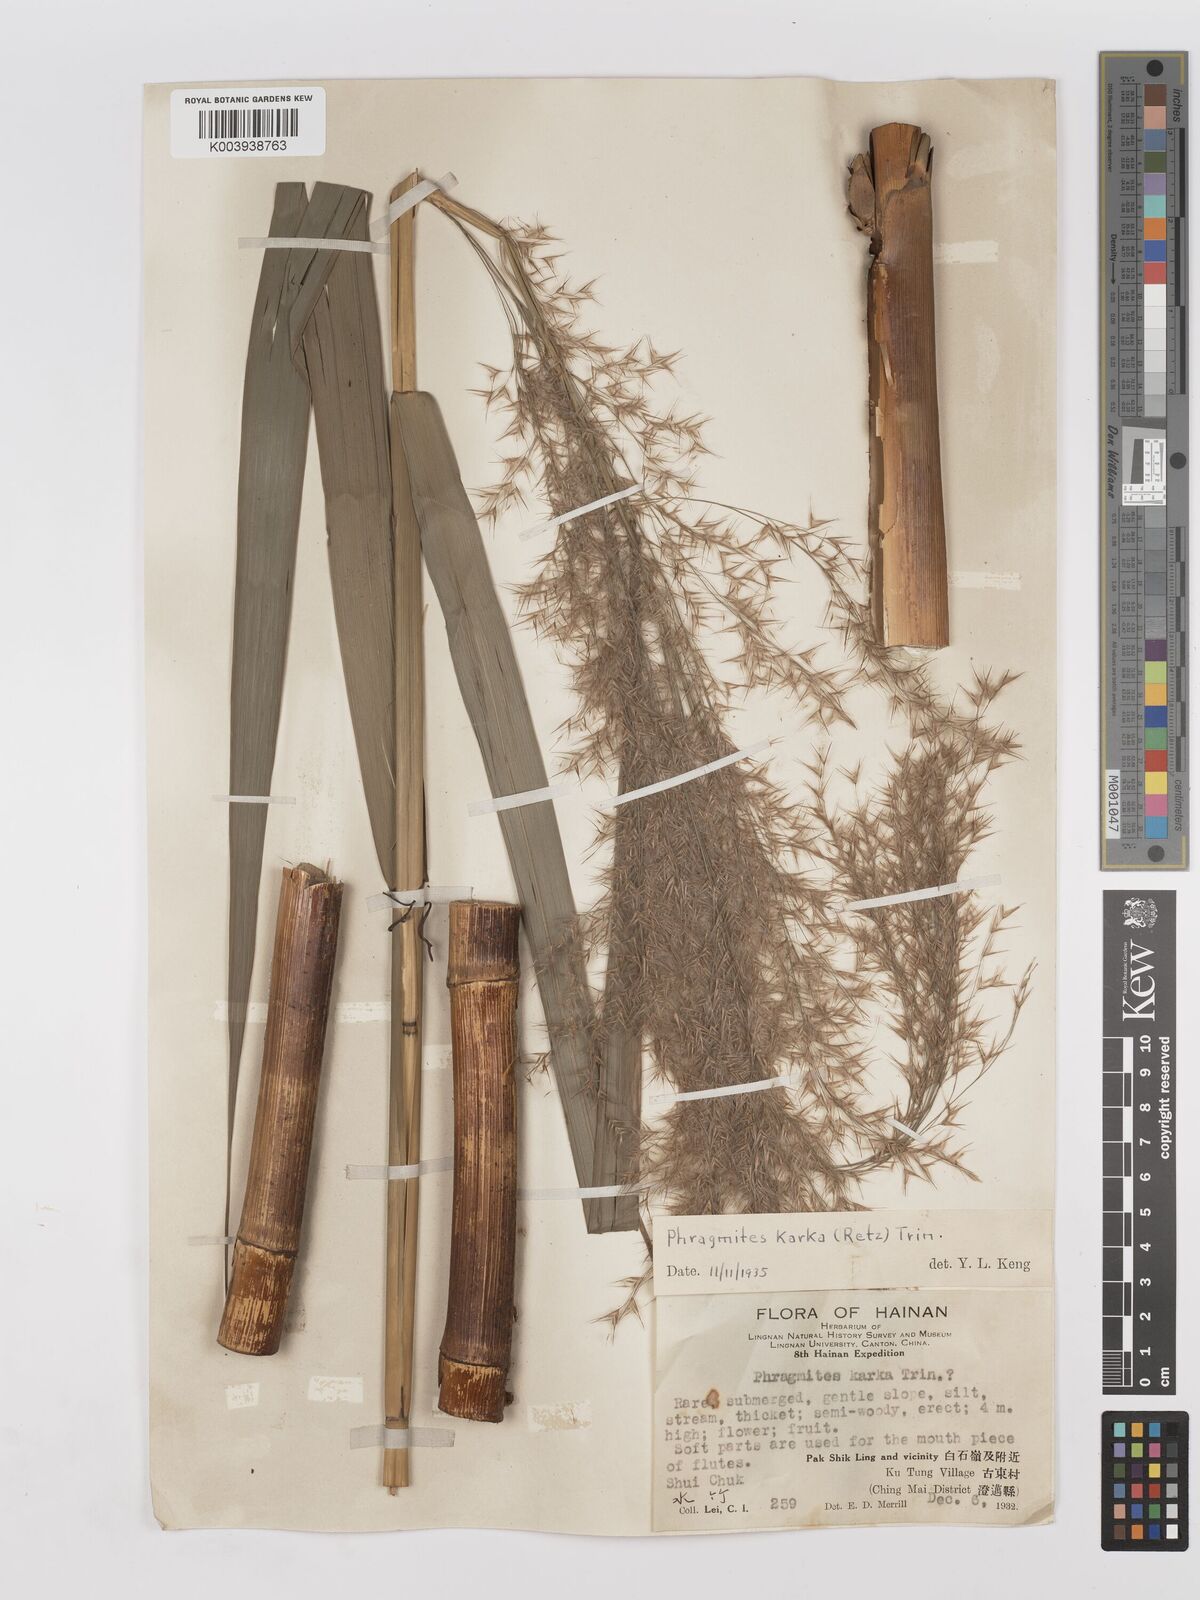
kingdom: Plantae
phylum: Tracheophyta
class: Liliopsida
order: Poales
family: Poaceae
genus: Phragmites
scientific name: Phragmites karka
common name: Tropical reed
